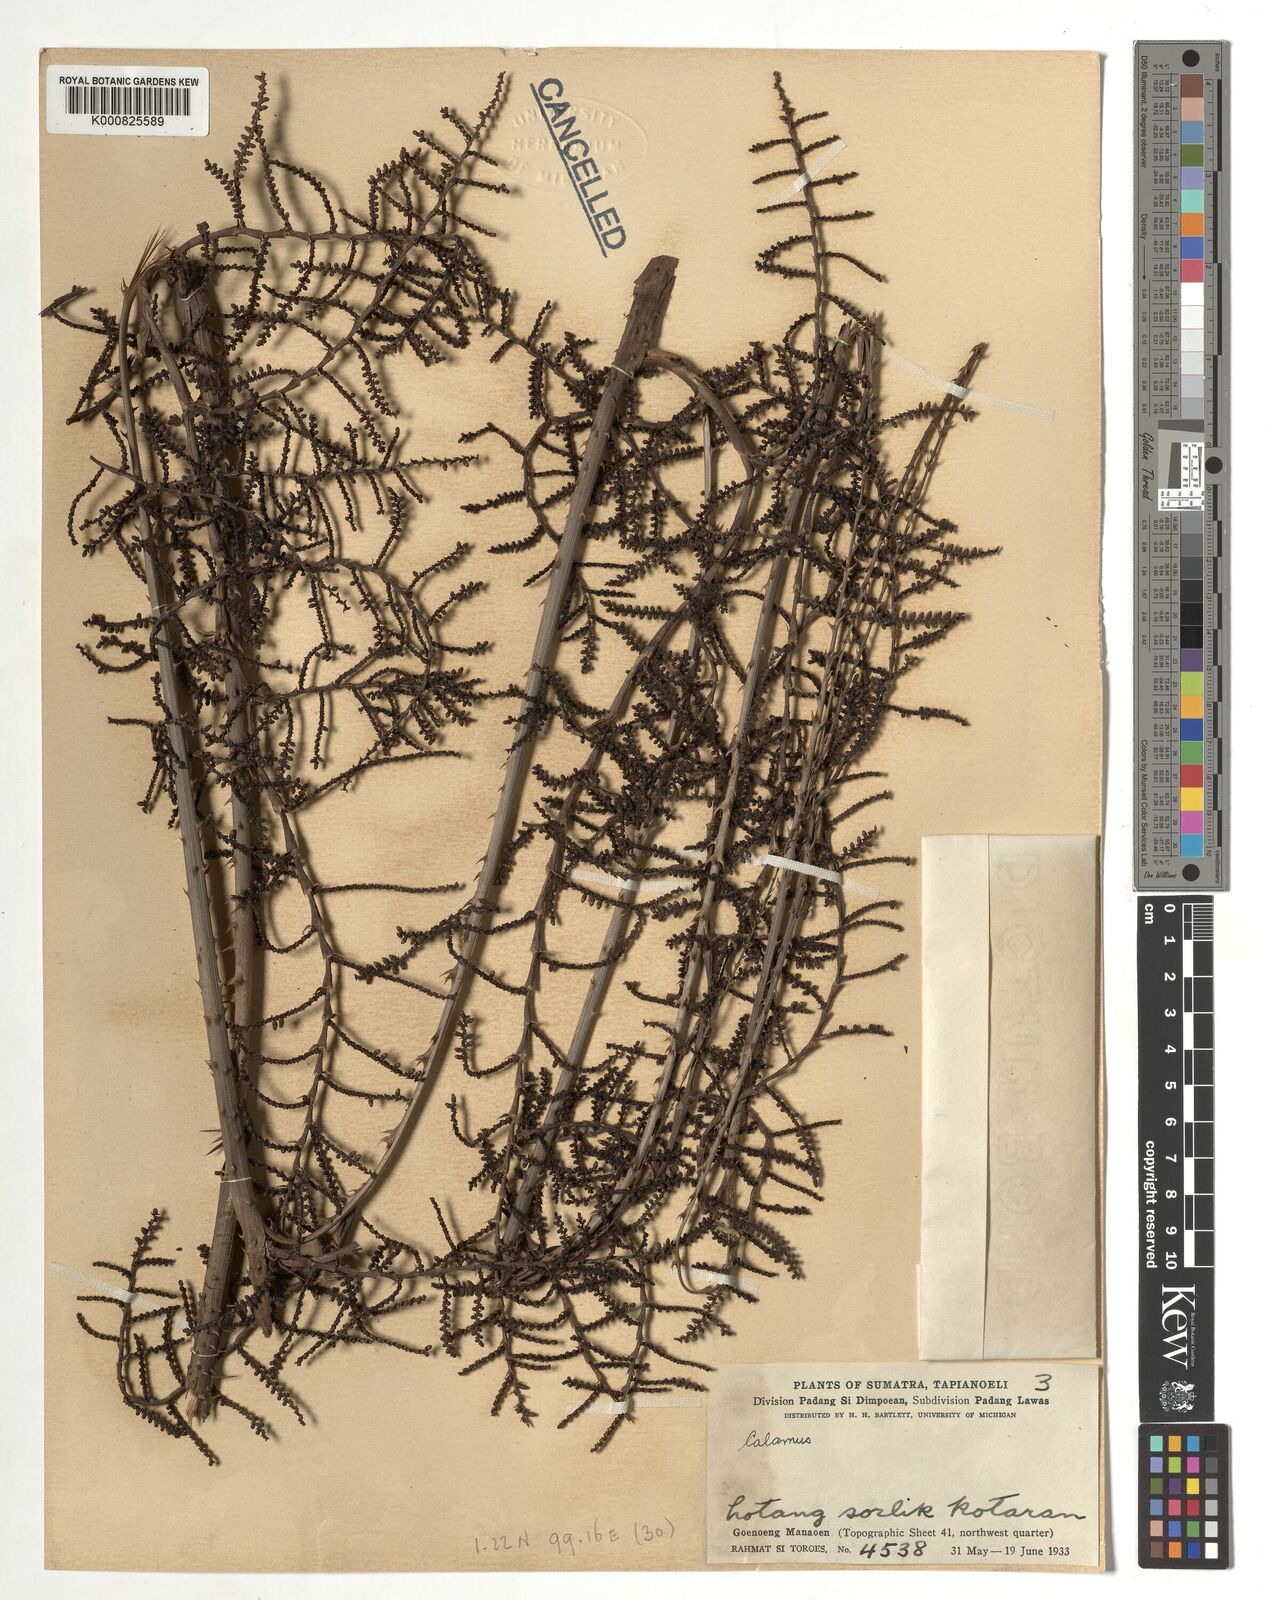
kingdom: Plantae
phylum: Tracheophyta
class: Liliopsida
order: Arecales
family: Arecaceae
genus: Calamus
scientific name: Calamus
